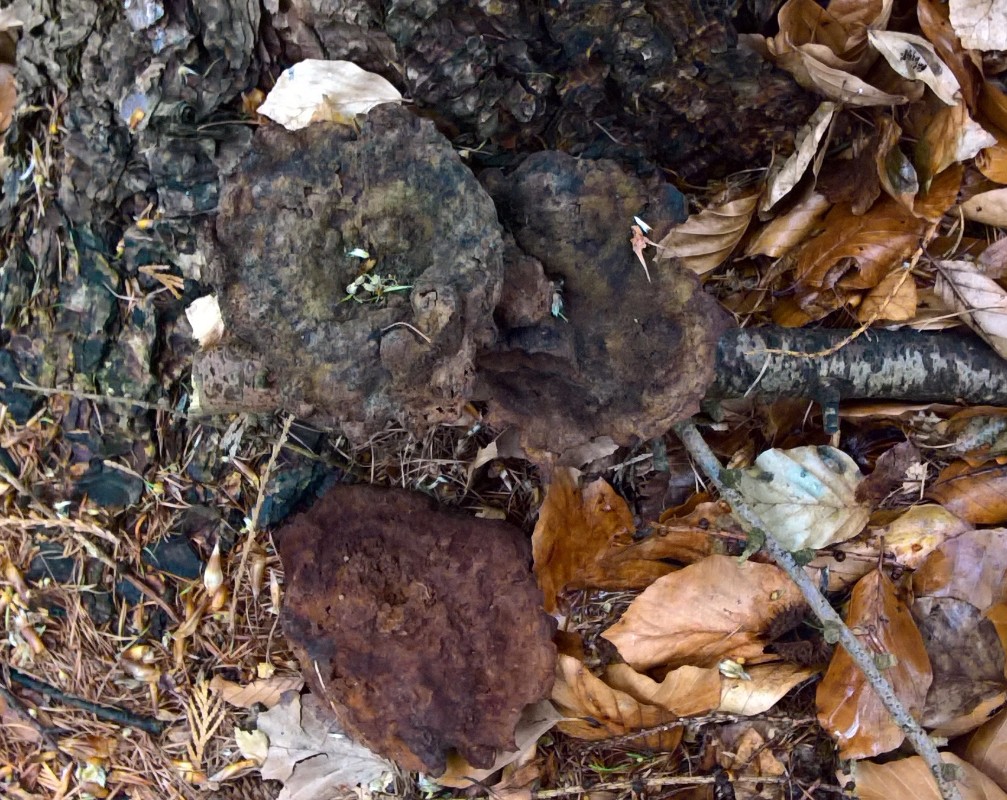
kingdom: Fungi
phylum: Basidiomycota
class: Agaricomycetes
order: Polyporales
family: Laetiporaceae
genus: Phaeolus
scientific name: Phaeolus schweinitzii
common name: brunporesvamp
